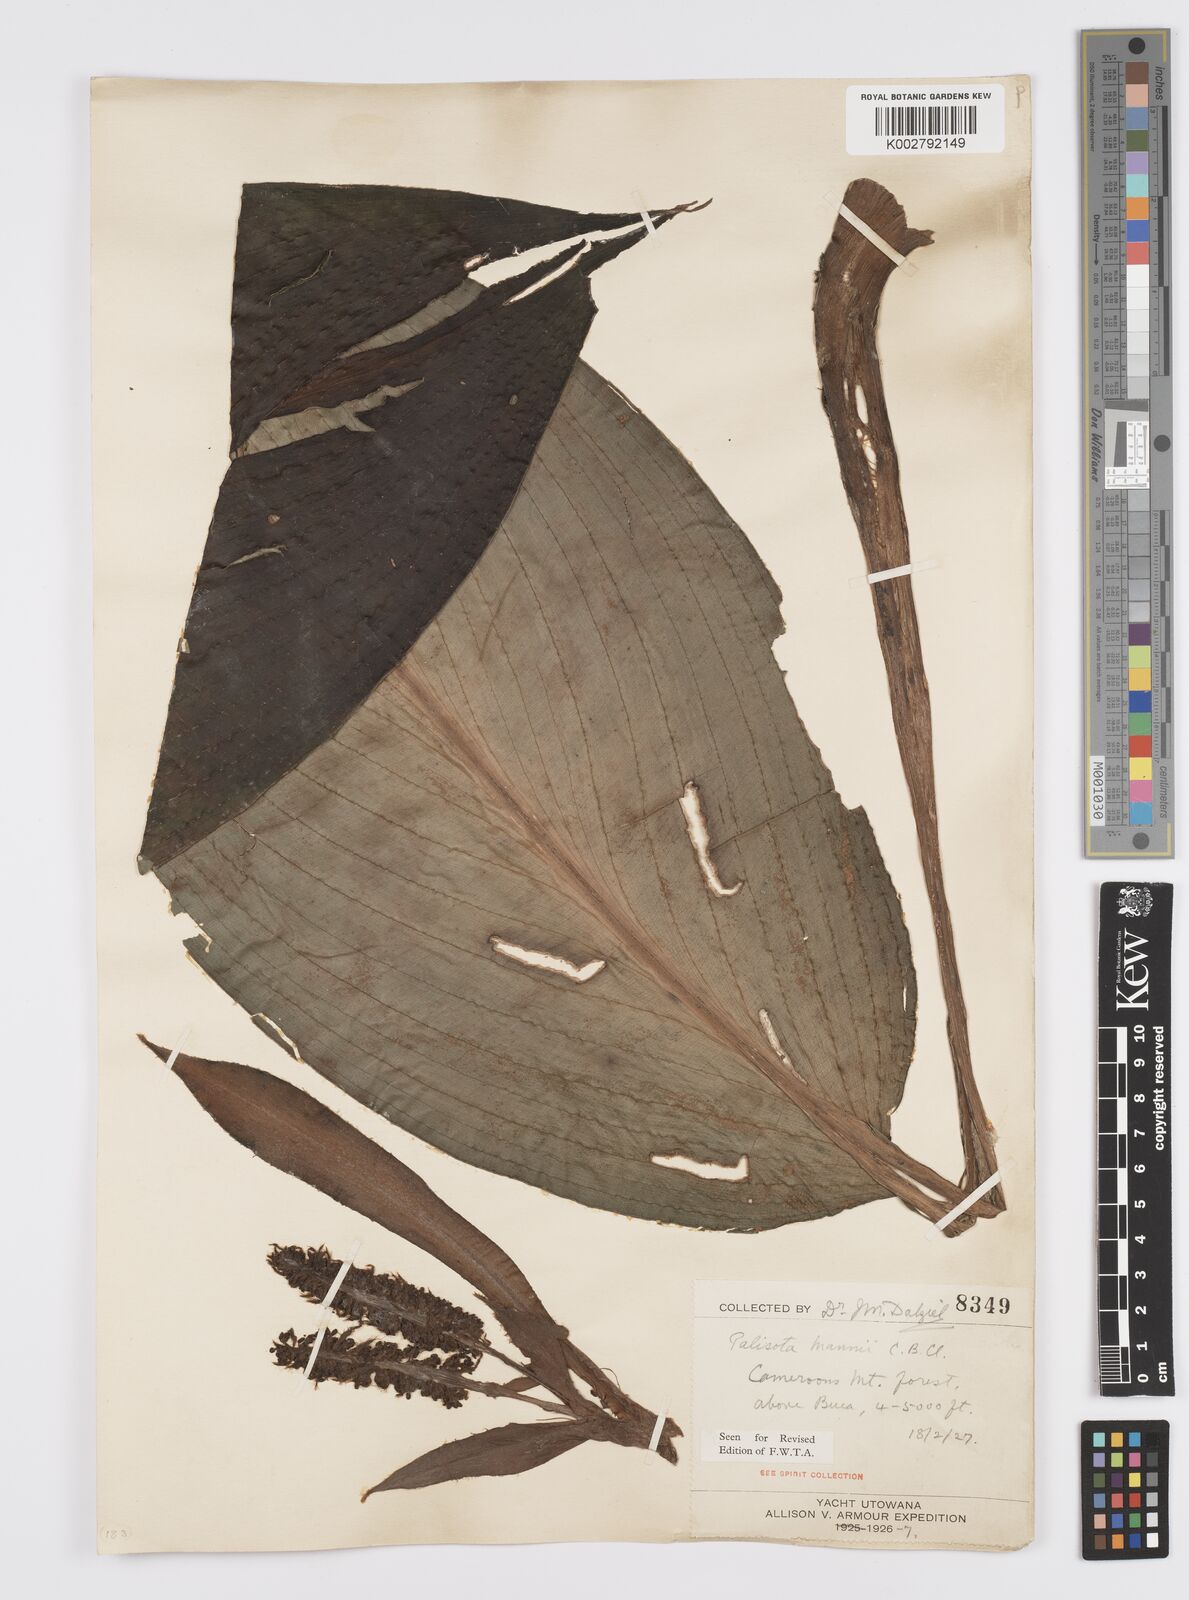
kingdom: Plantae
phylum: Tracheophyta
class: Liliopsida
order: Commelinales
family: Commelinaceae
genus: Palisota
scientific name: Palisota mannii
